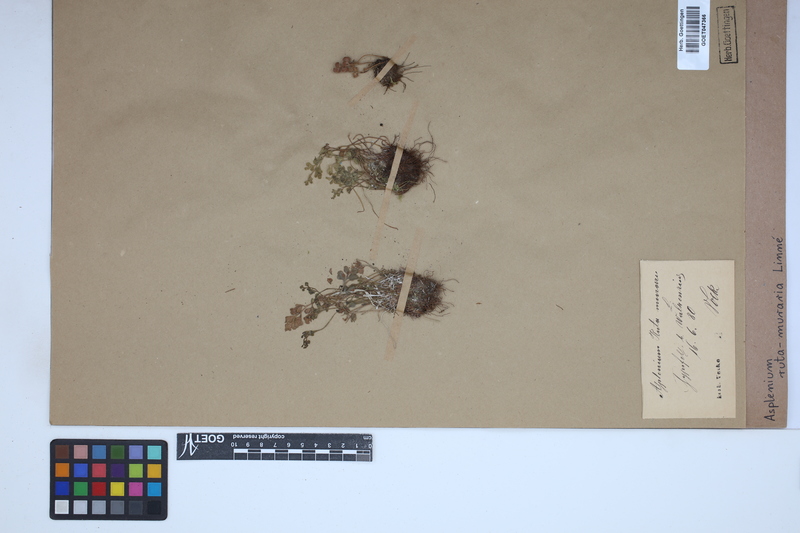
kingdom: Plantae
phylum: Tracheophyta
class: Polypodiopsida
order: Polypodiales
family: Aspleniaceae
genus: Asplenium
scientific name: Asplenium ruta-muraria
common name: Wall-rue
